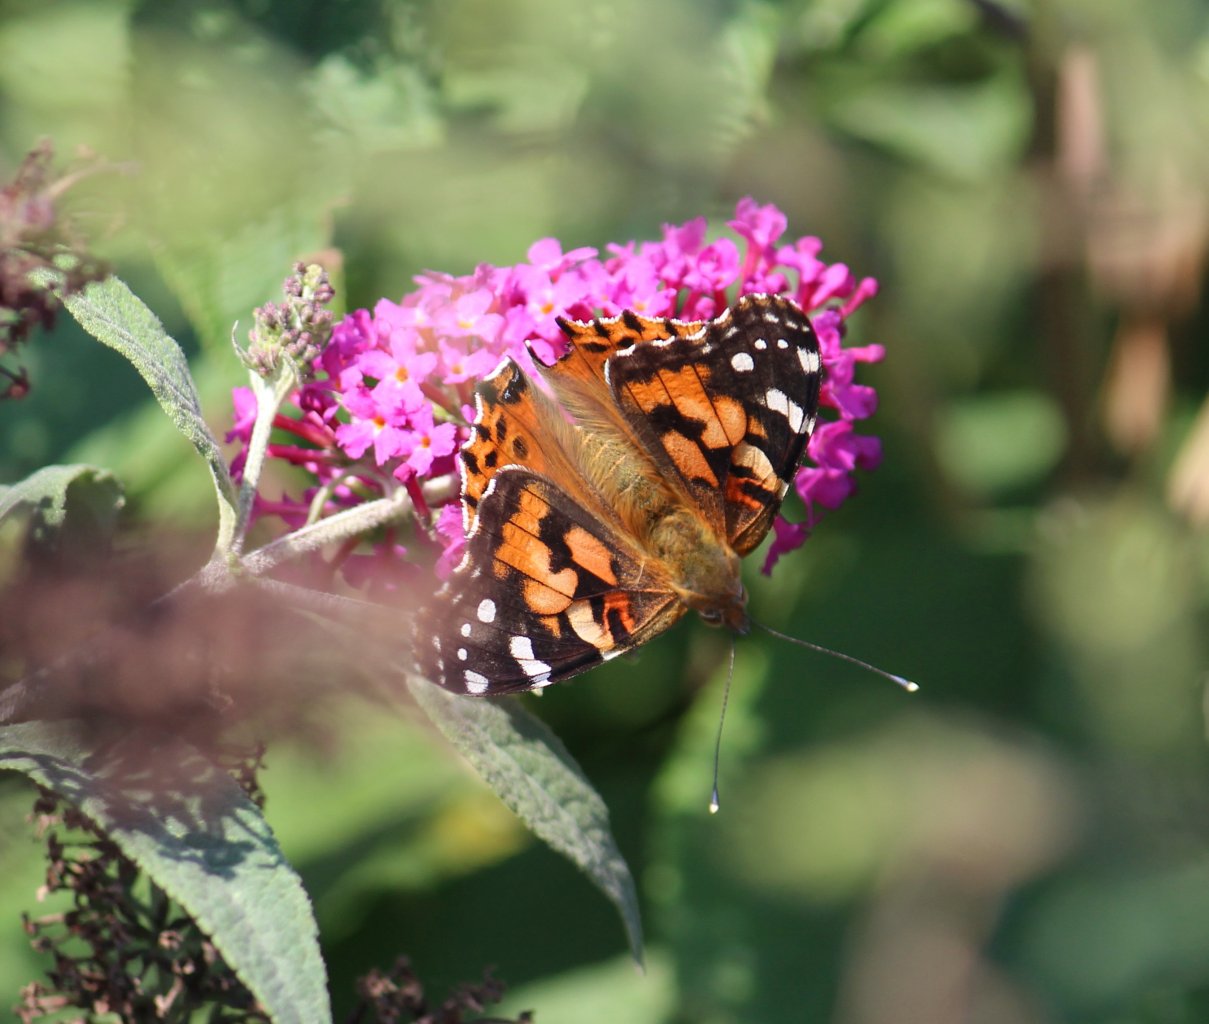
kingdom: Animalia
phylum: Arthropoda
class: Insecta
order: Lepidoptera
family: Nymphalidae
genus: Vanessa
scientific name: Vanessa cardui
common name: Painted Lady
